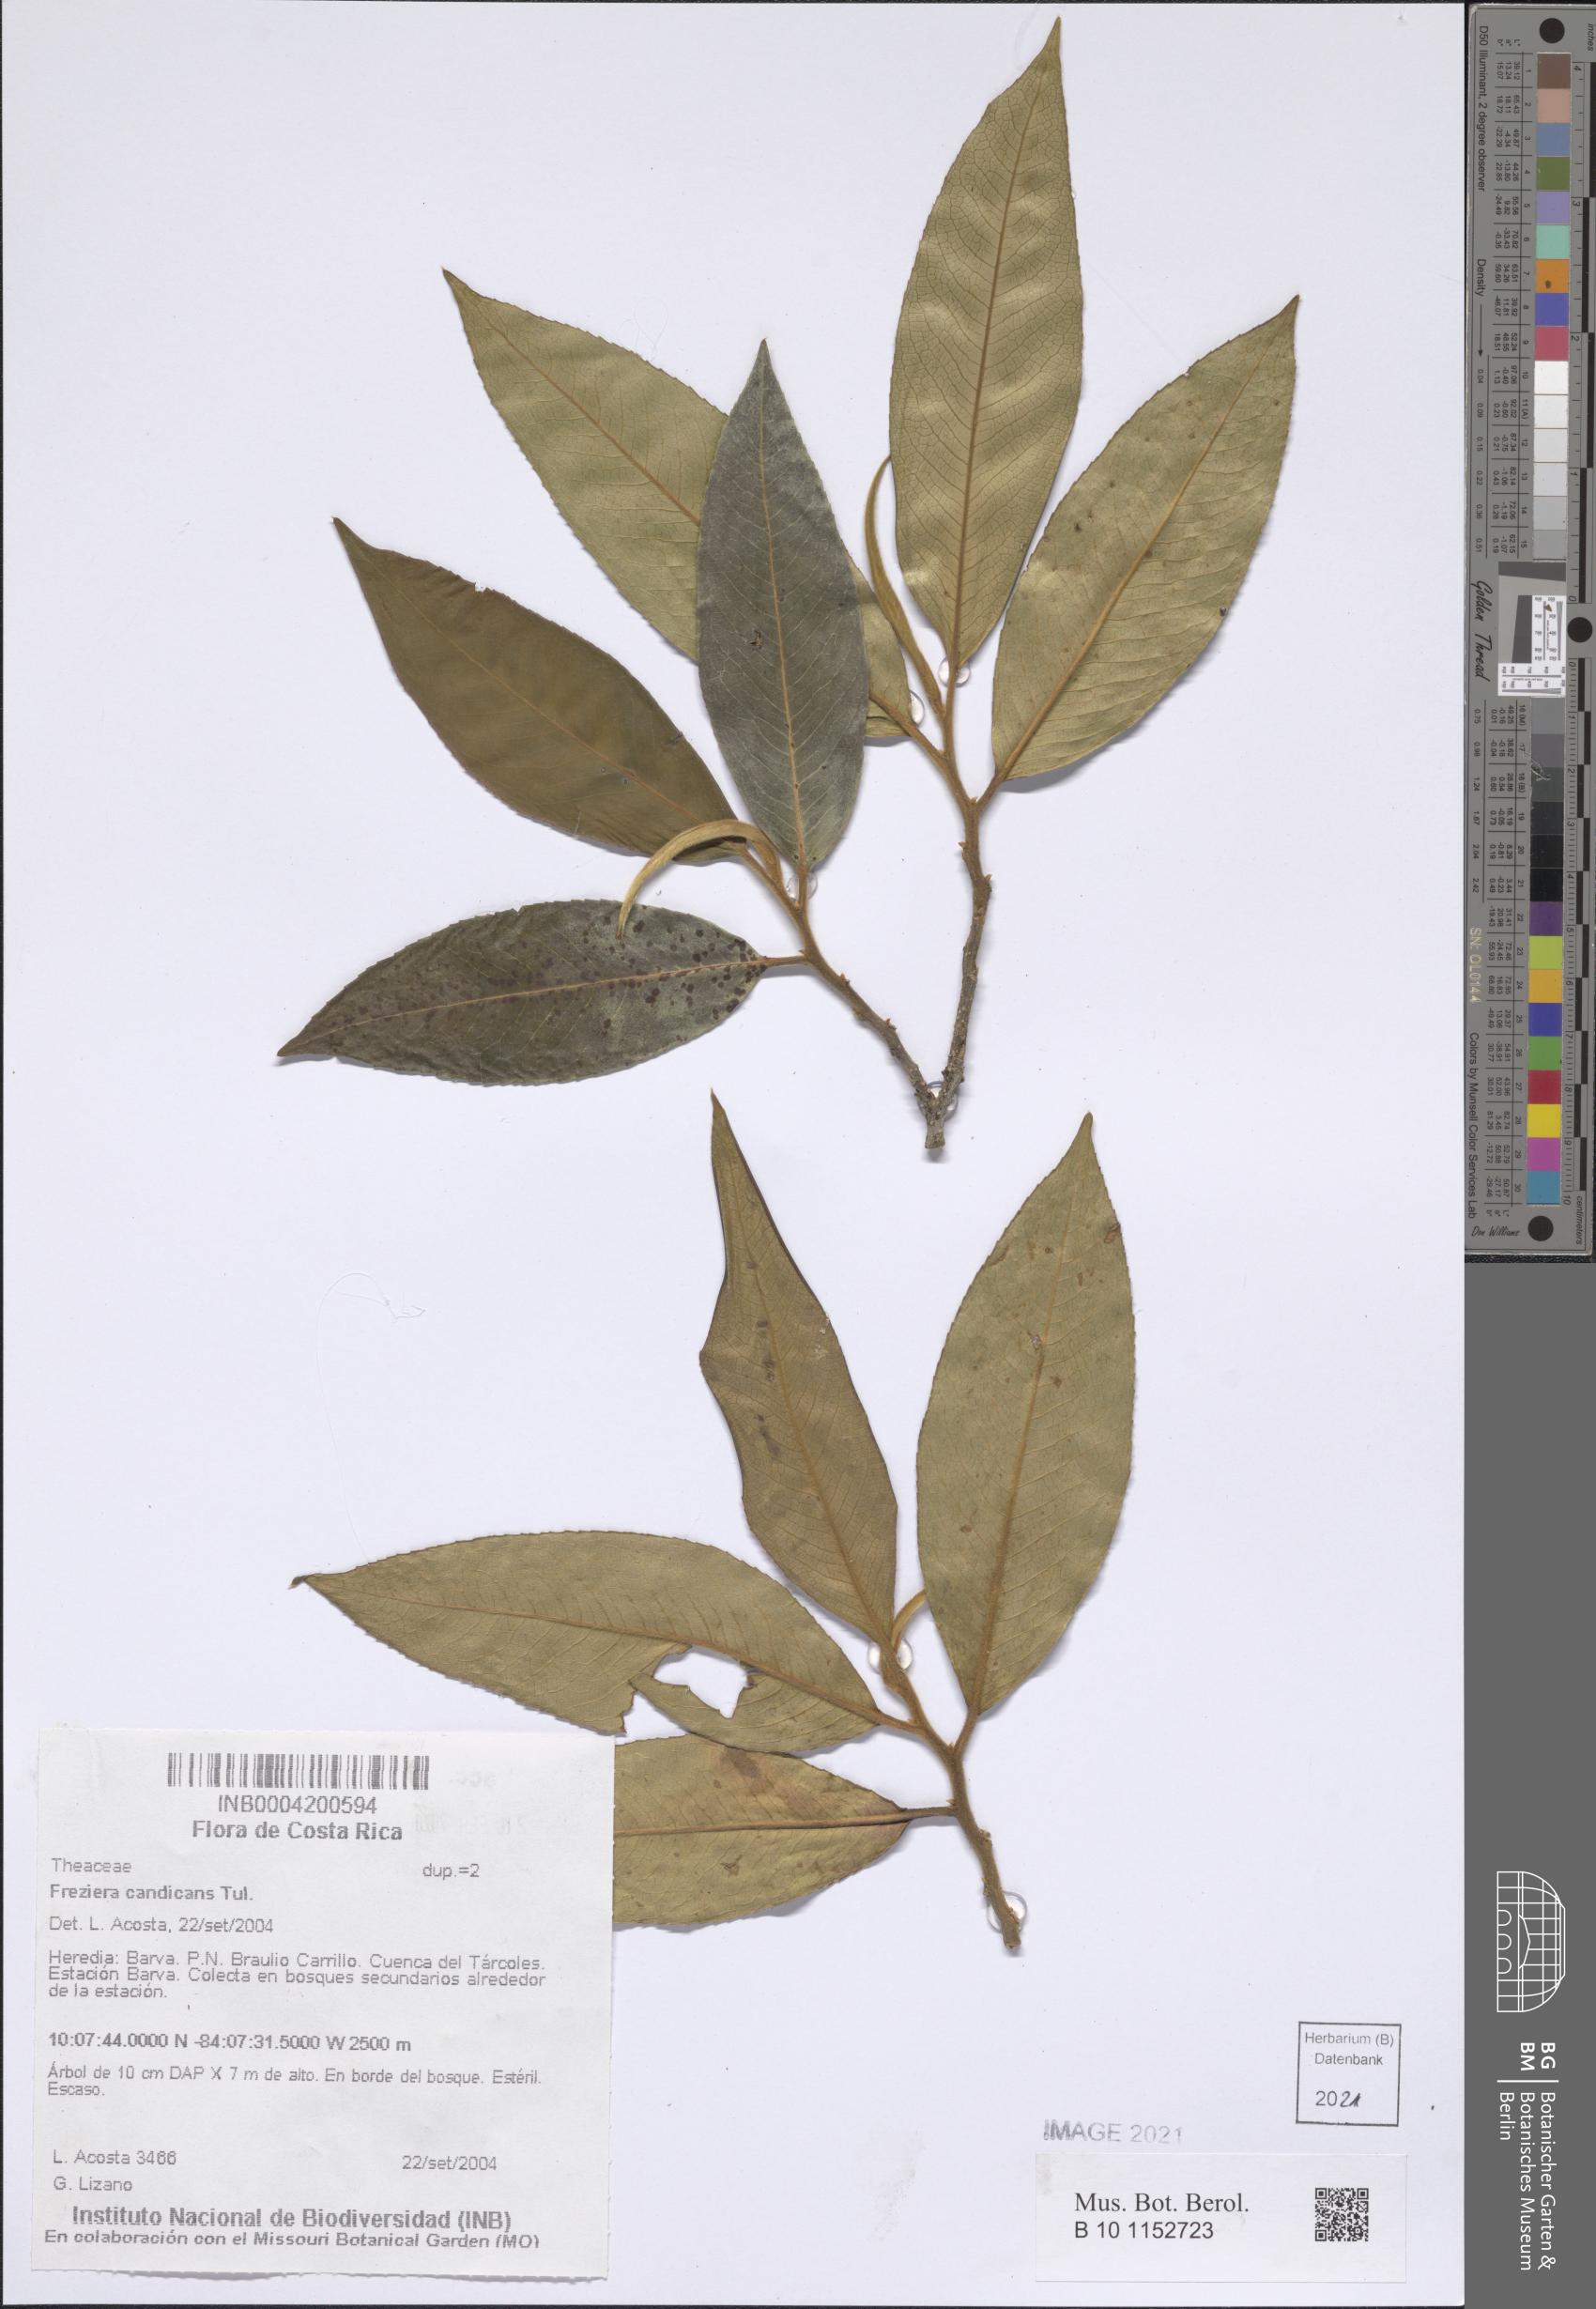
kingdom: Plantae
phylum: Tracheophyta
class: Magnoliopsida
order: Ericales
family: Pentaphylacaceae
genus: Freziera
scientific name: Freziera candicans
